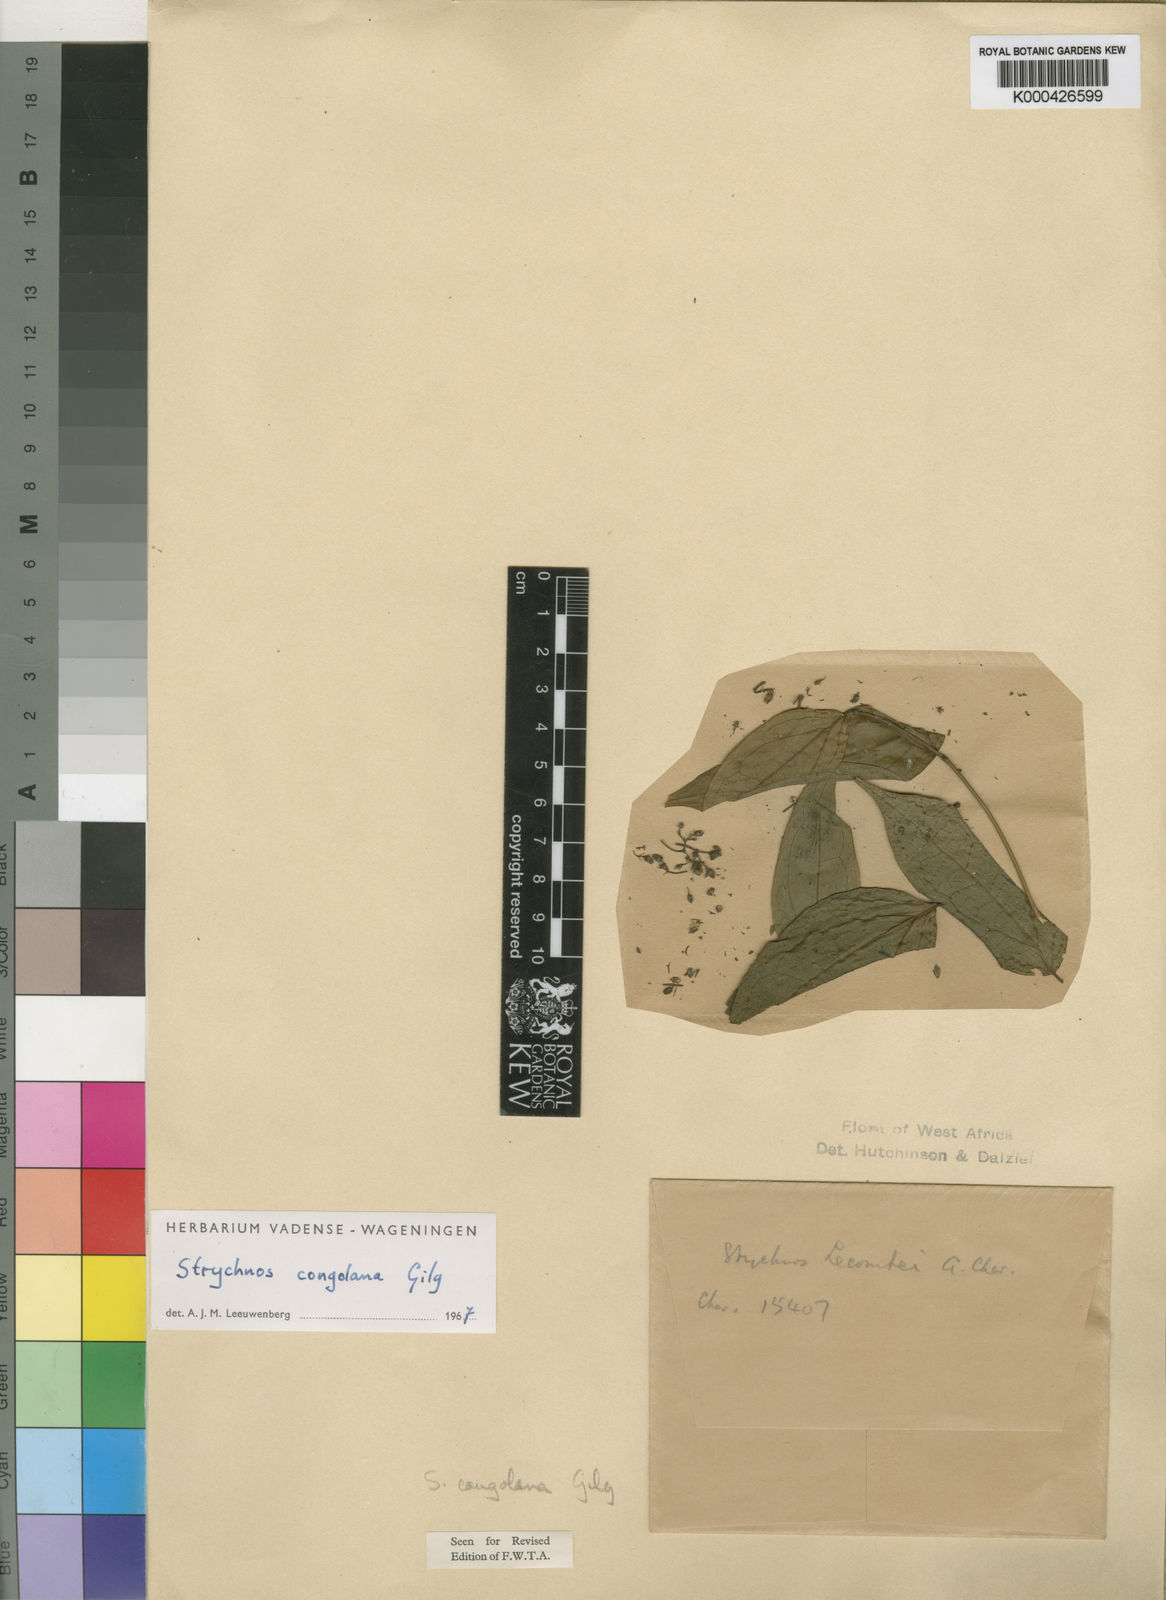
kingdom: Plantae
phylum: Tracheophyta
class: Magnoliopsida
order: Gentianales
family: Loganiaceae
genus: Strychnos
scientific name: Strychnos congolana
